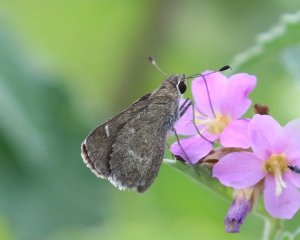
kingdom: Animalia
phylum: Arthropoda
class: Insecta
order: Lepidoptera
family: Hesperiidae
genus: Lerodea
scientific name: Lerodea arabus
